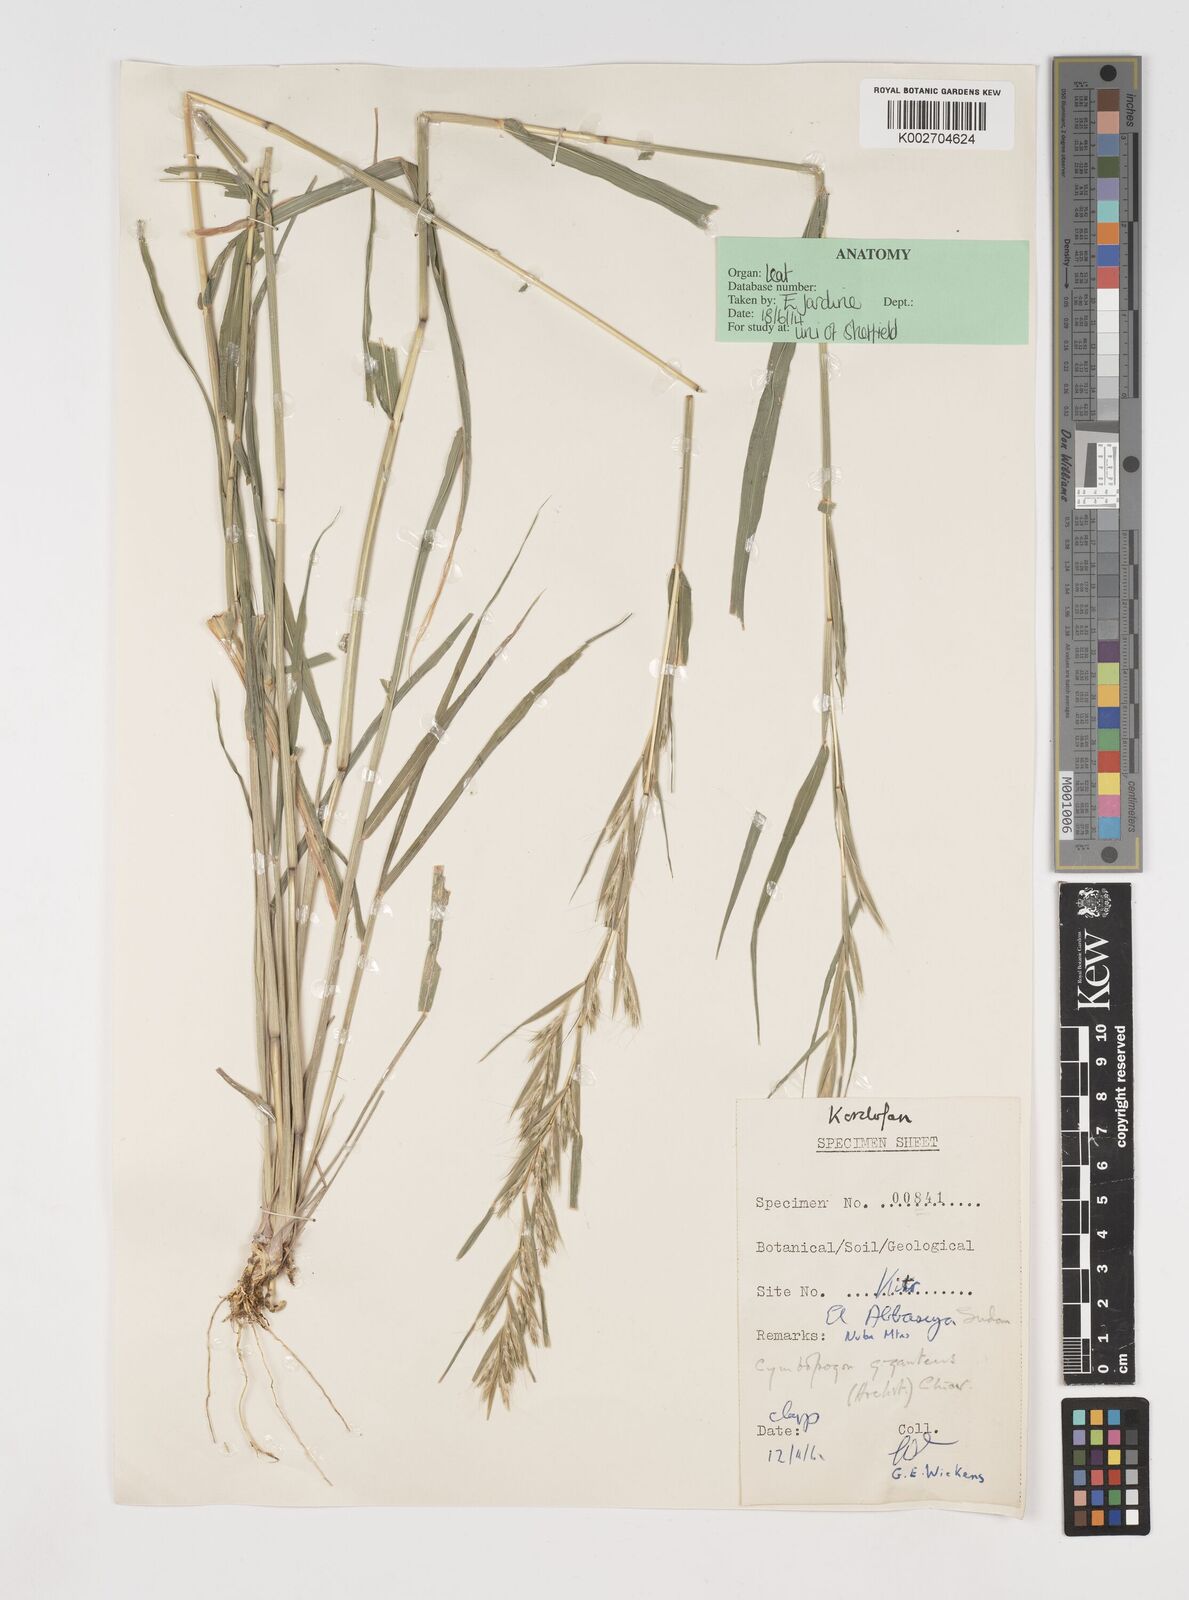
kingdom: Plantae
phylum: Tracheophyta
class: Liliopsida
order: Poales
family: Poaceae
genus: Cymbopogon
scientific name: Cymbopogon nervatus
